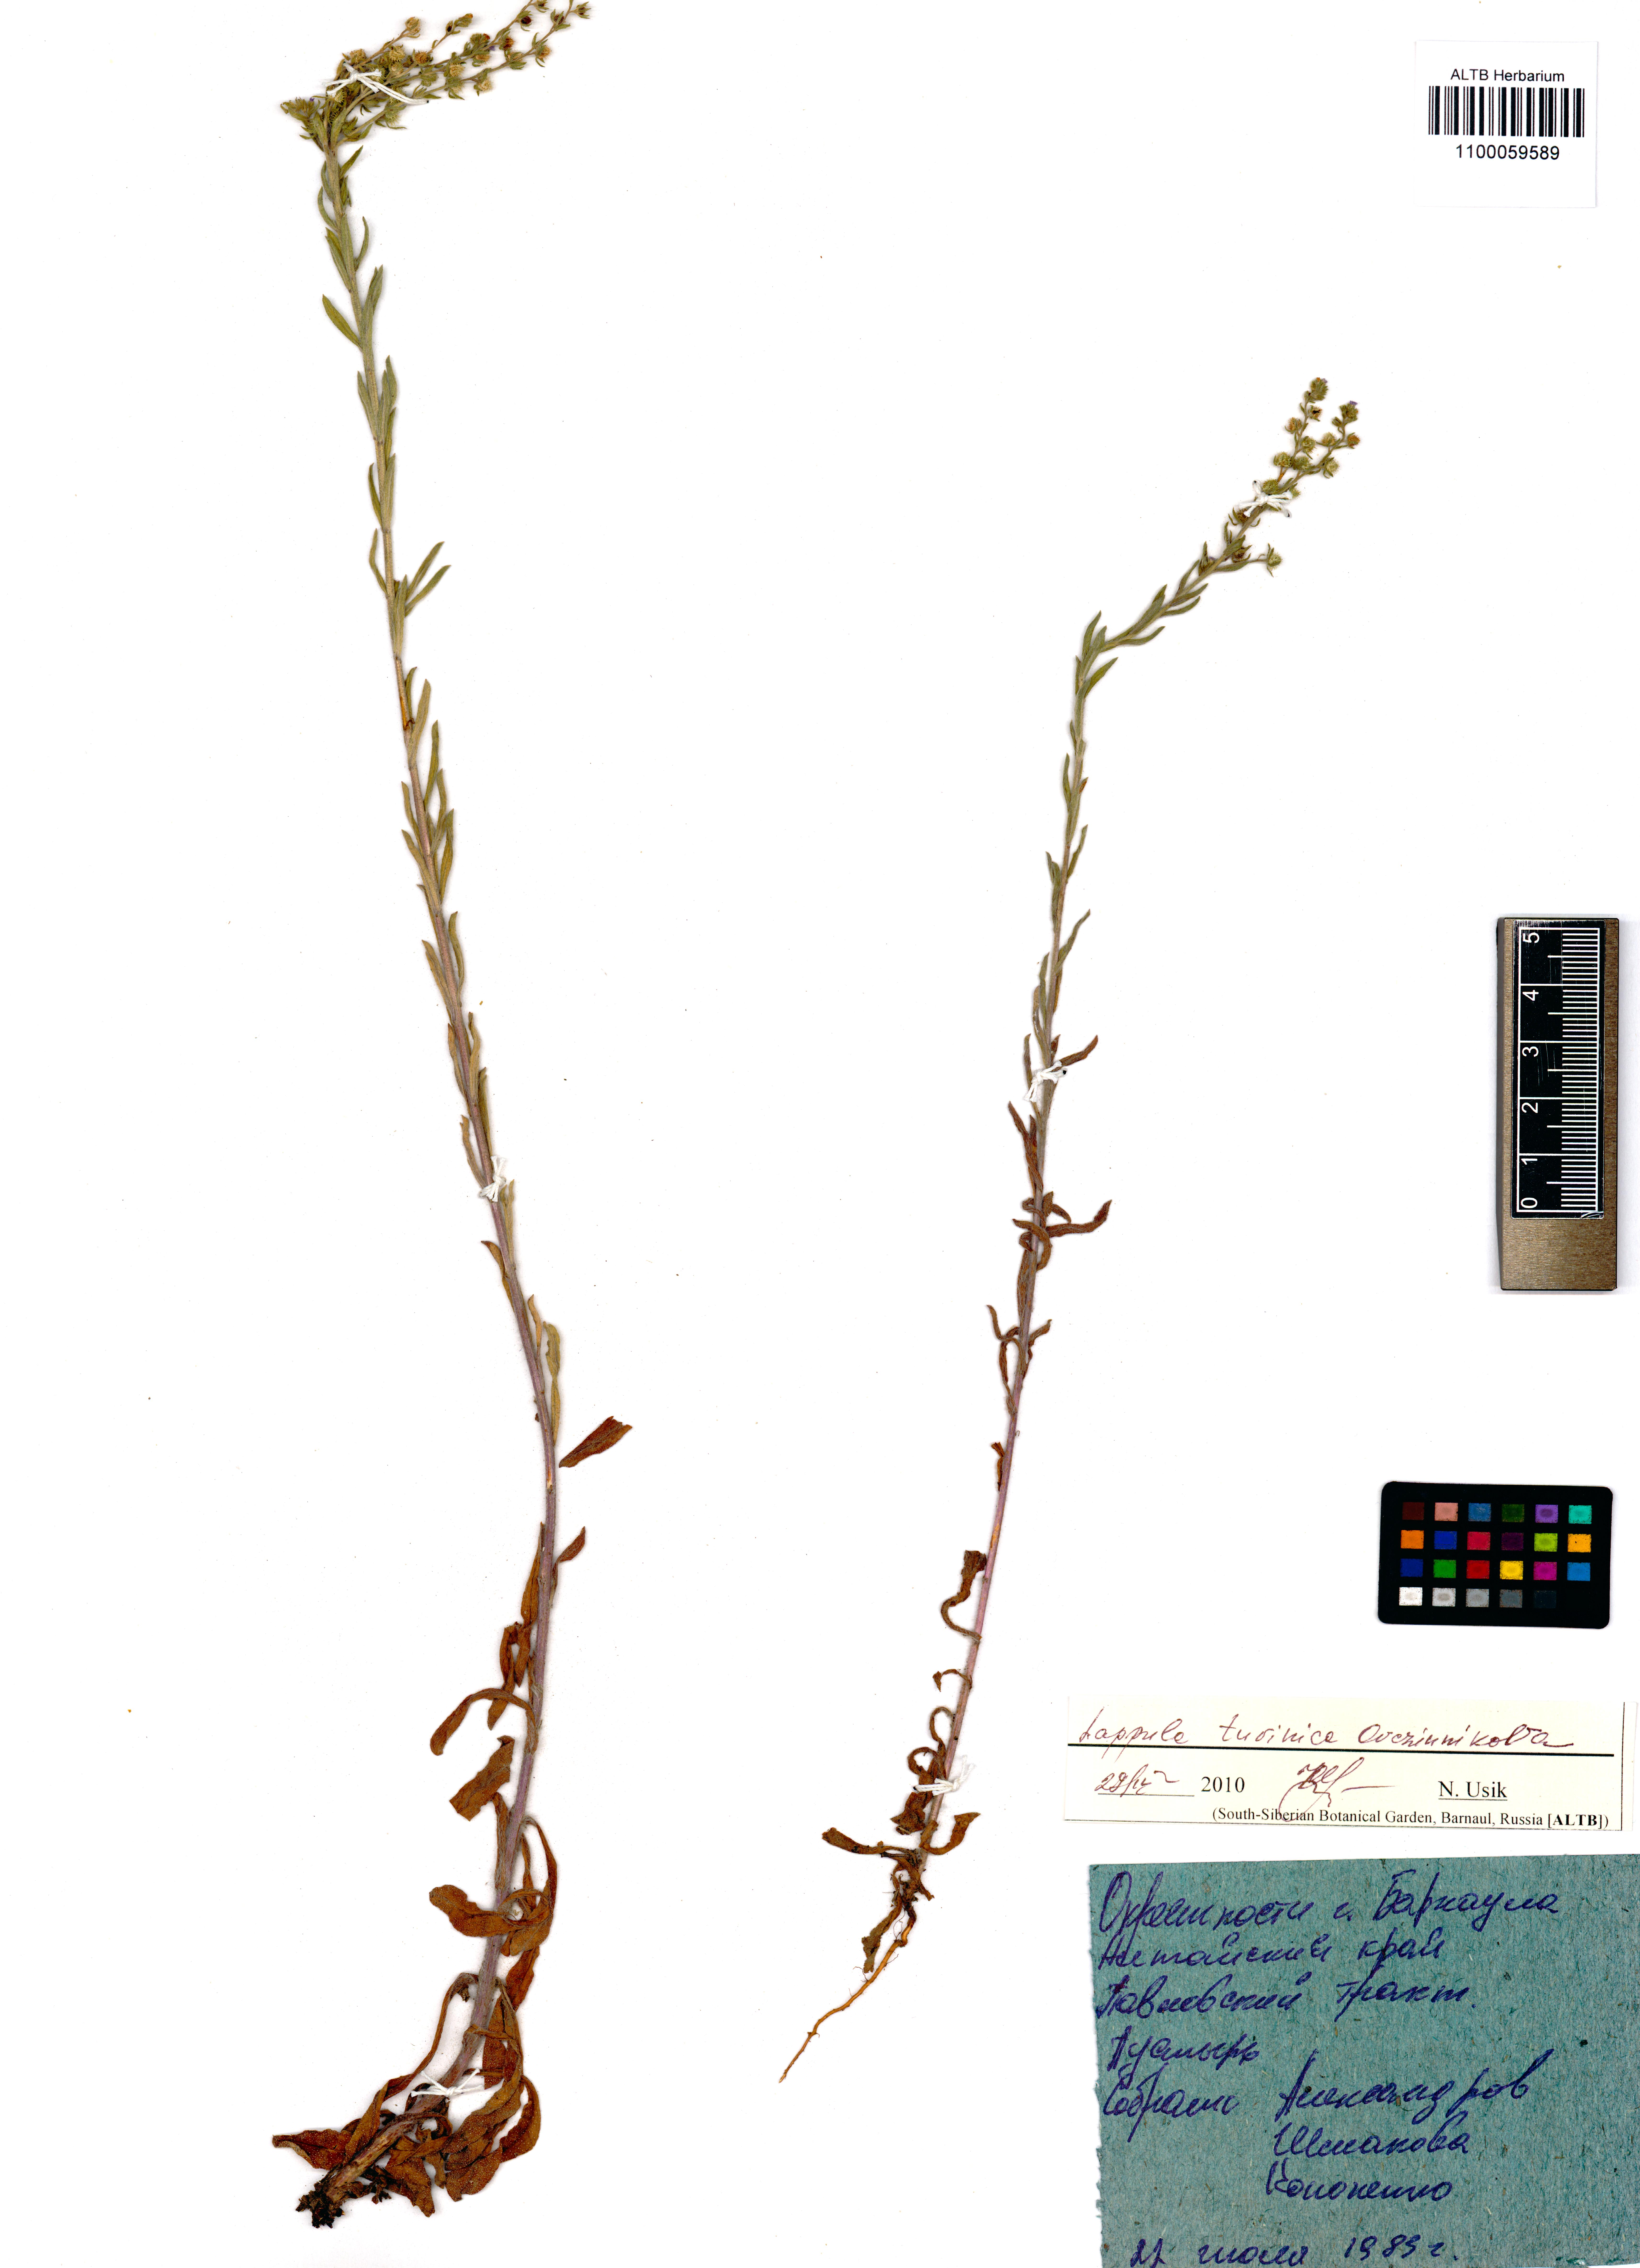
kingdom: Plantae
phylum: Tracheophyta
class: Magnoliopsida
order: Boraginales
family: Boraginaceae
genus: Lappula
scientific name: Lappula tuvinica
